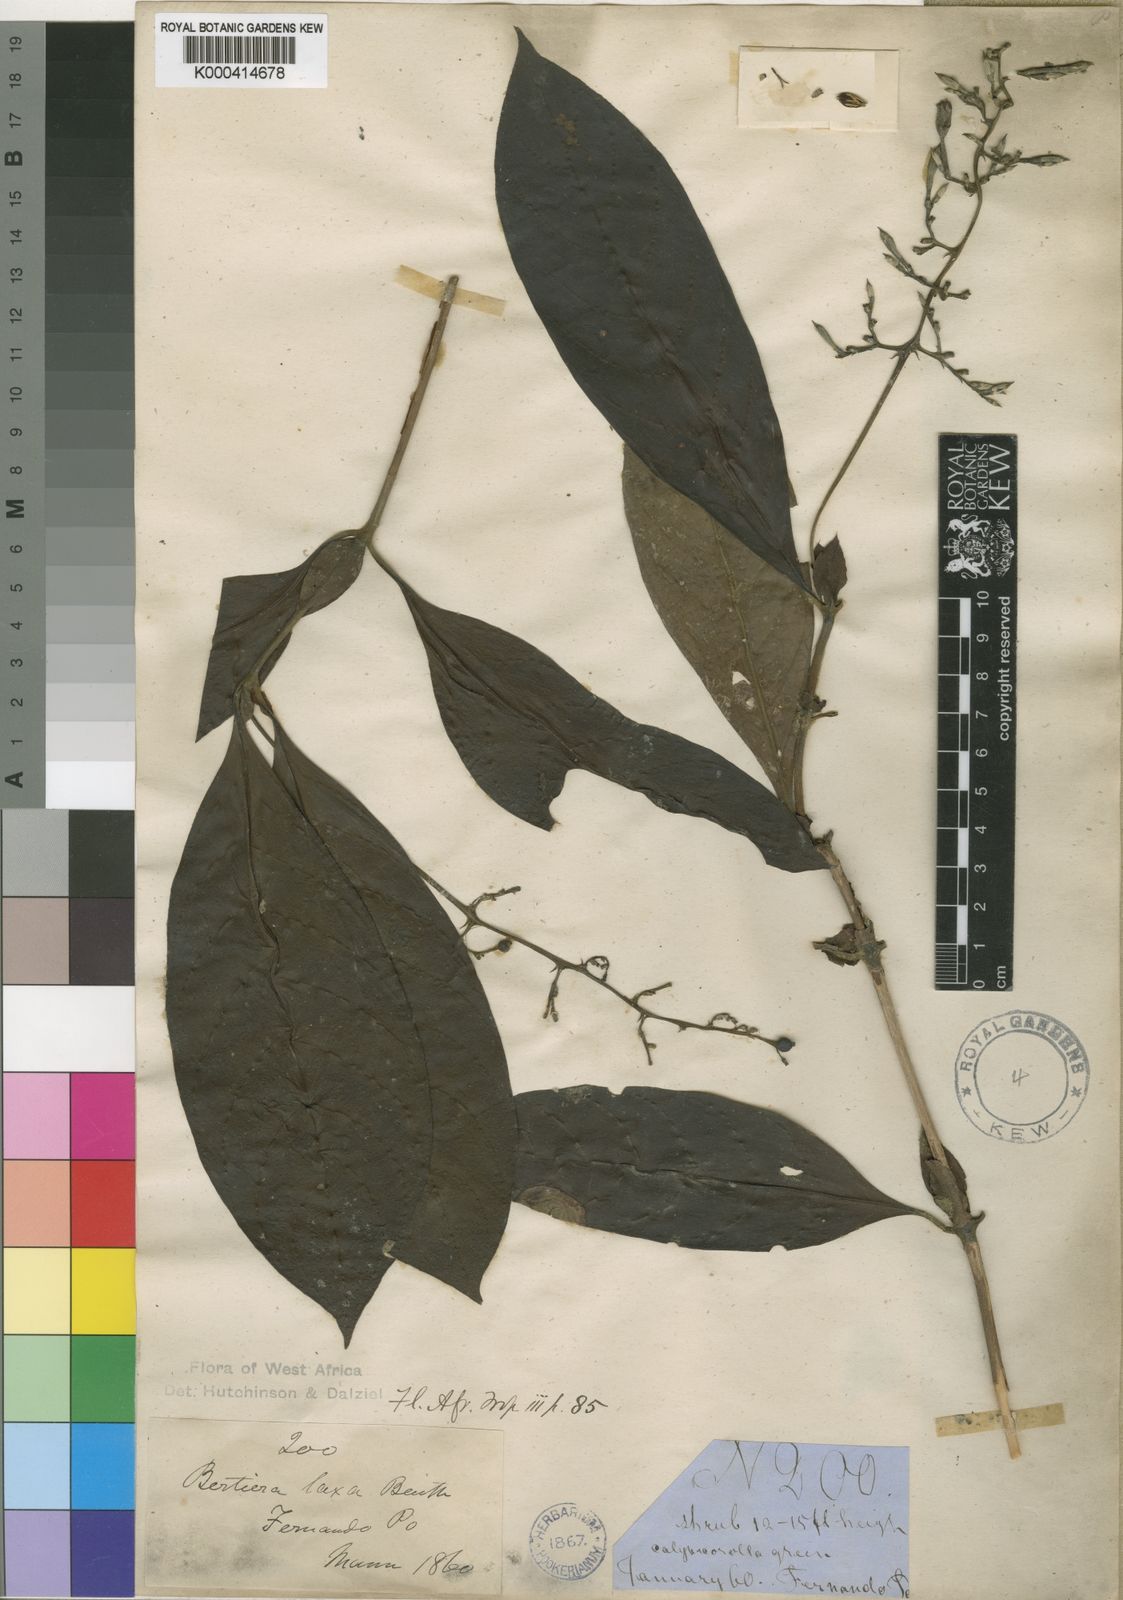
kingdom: Plantae
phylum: Tracheophyta
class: Magnoliopsida
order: Gentianales
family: Rubiaceae
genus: Bertiera
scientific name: Bertiera laxa
